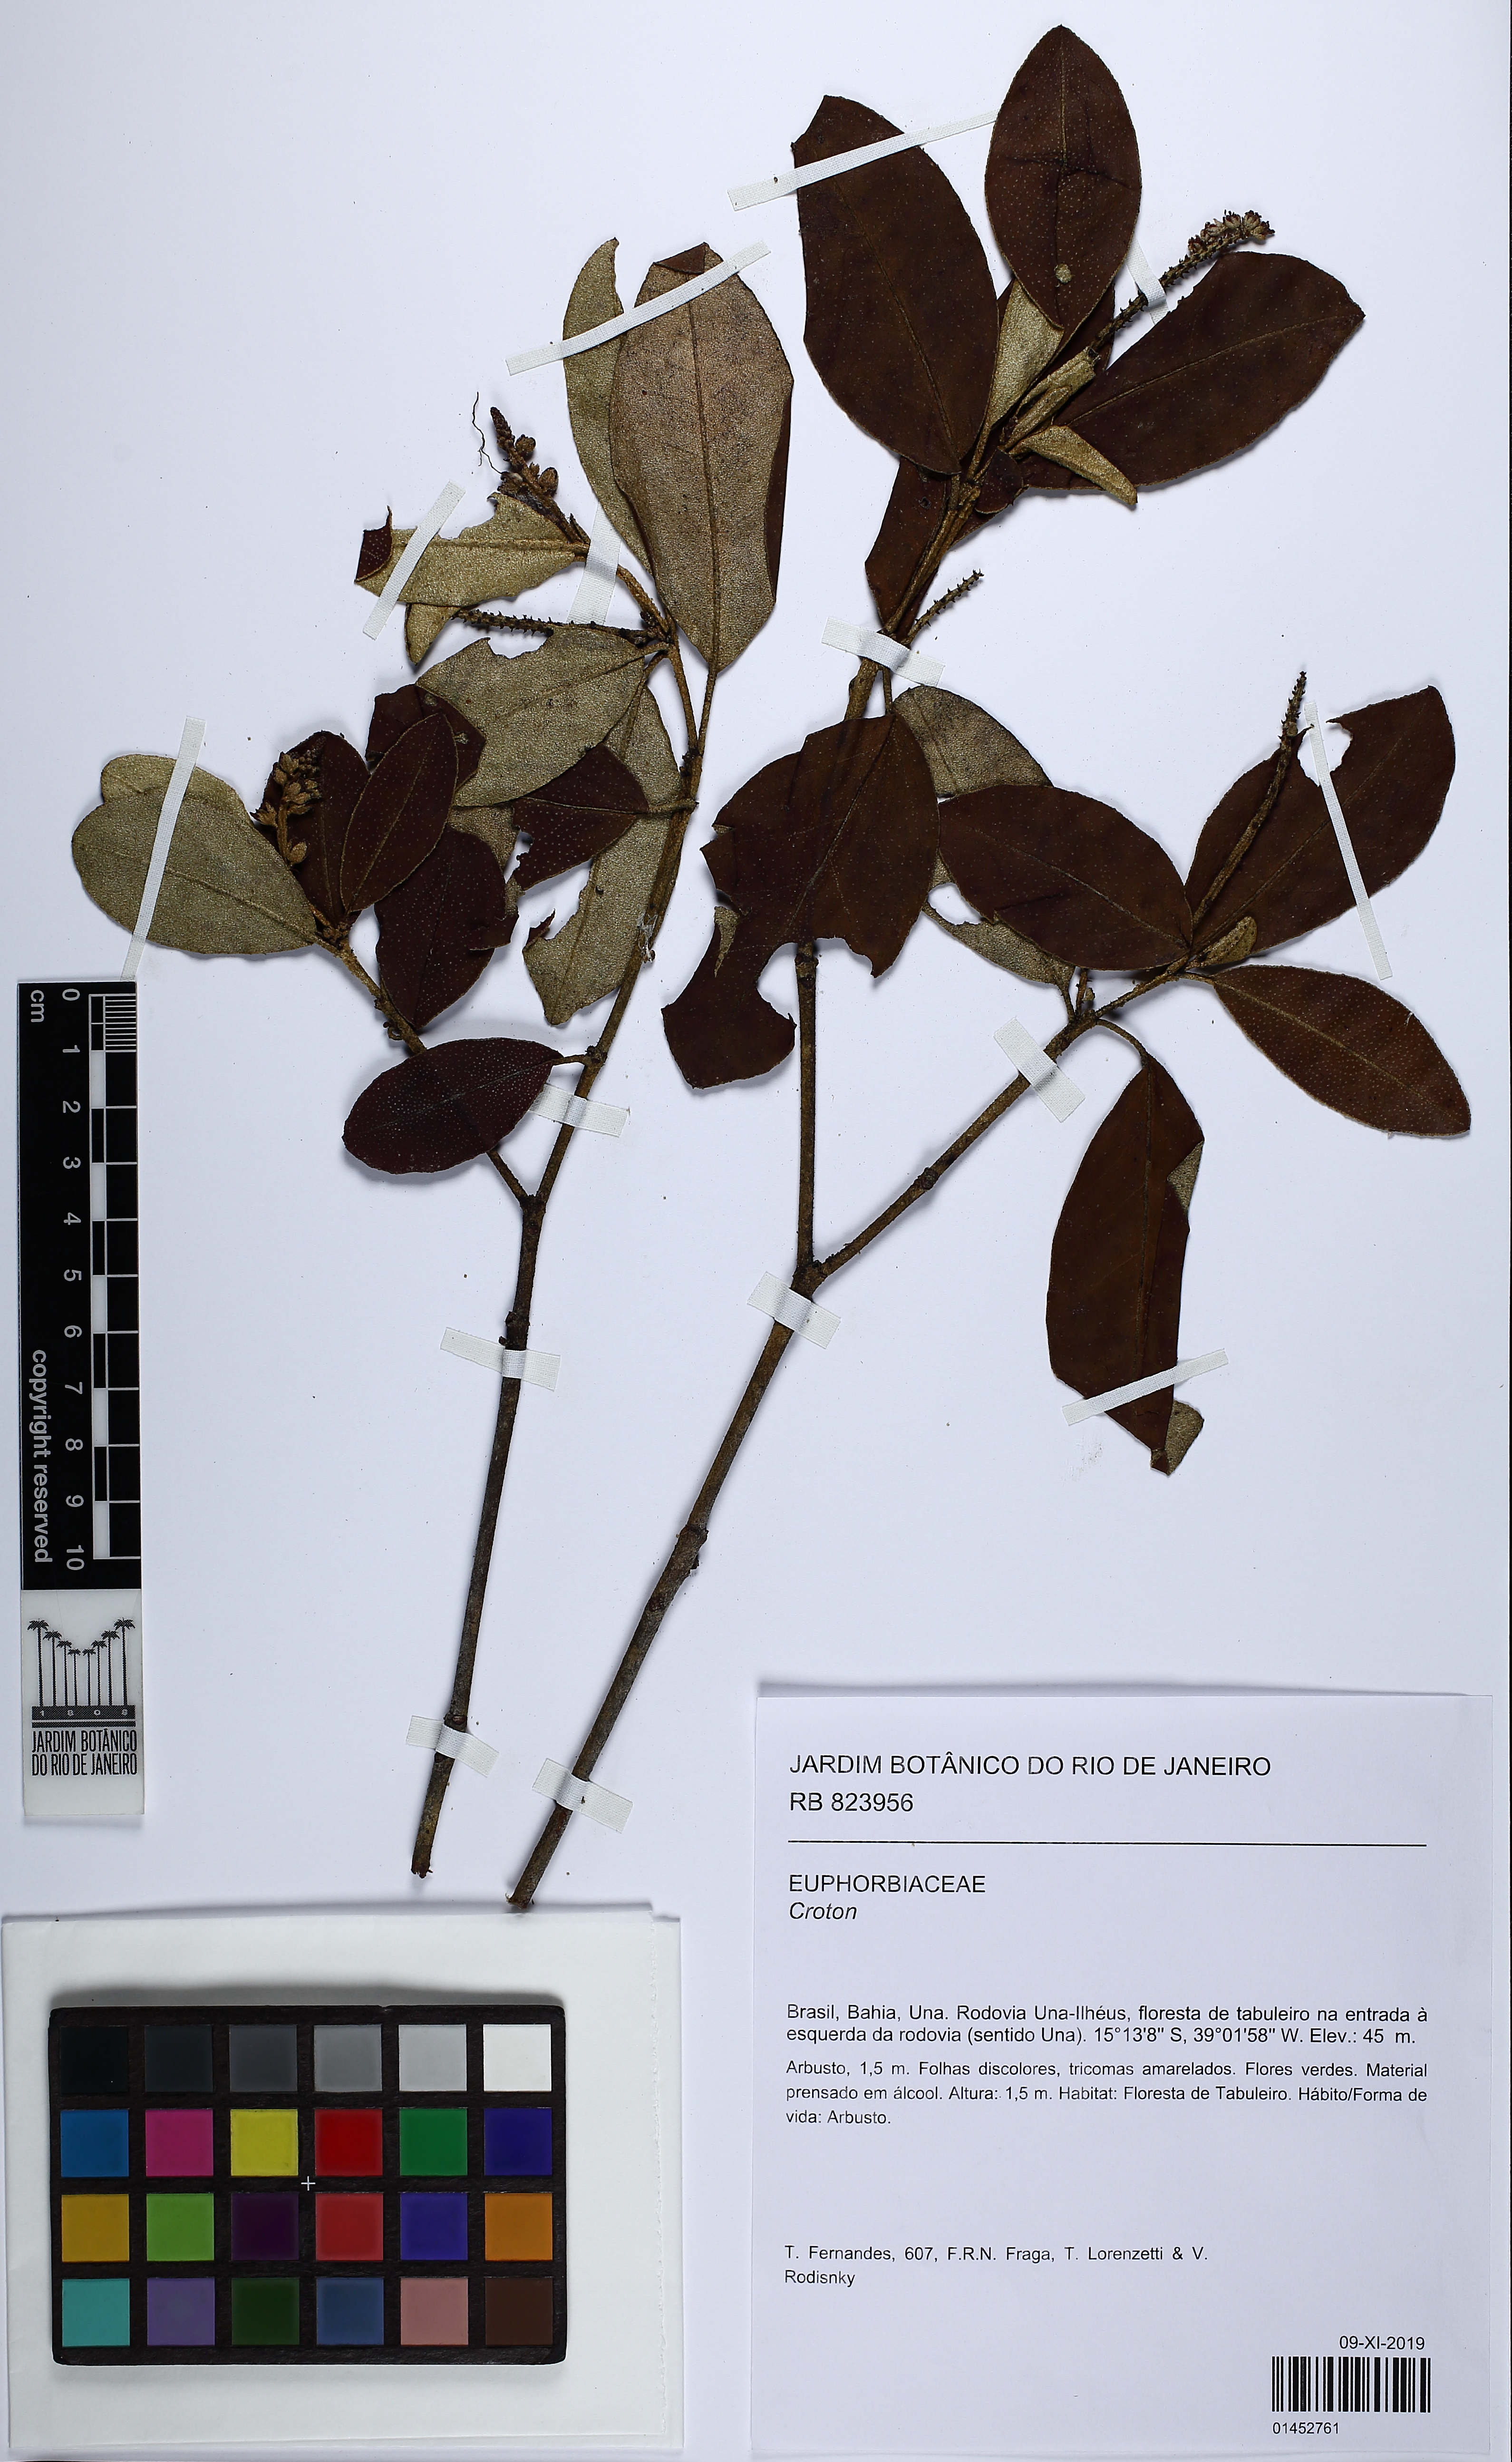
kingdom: Plantae
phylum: Tracheophyta
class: Magnoliopsida
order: Malpighiales
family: Euphorbiaceae
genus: Croton
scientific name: Croton sellowii
